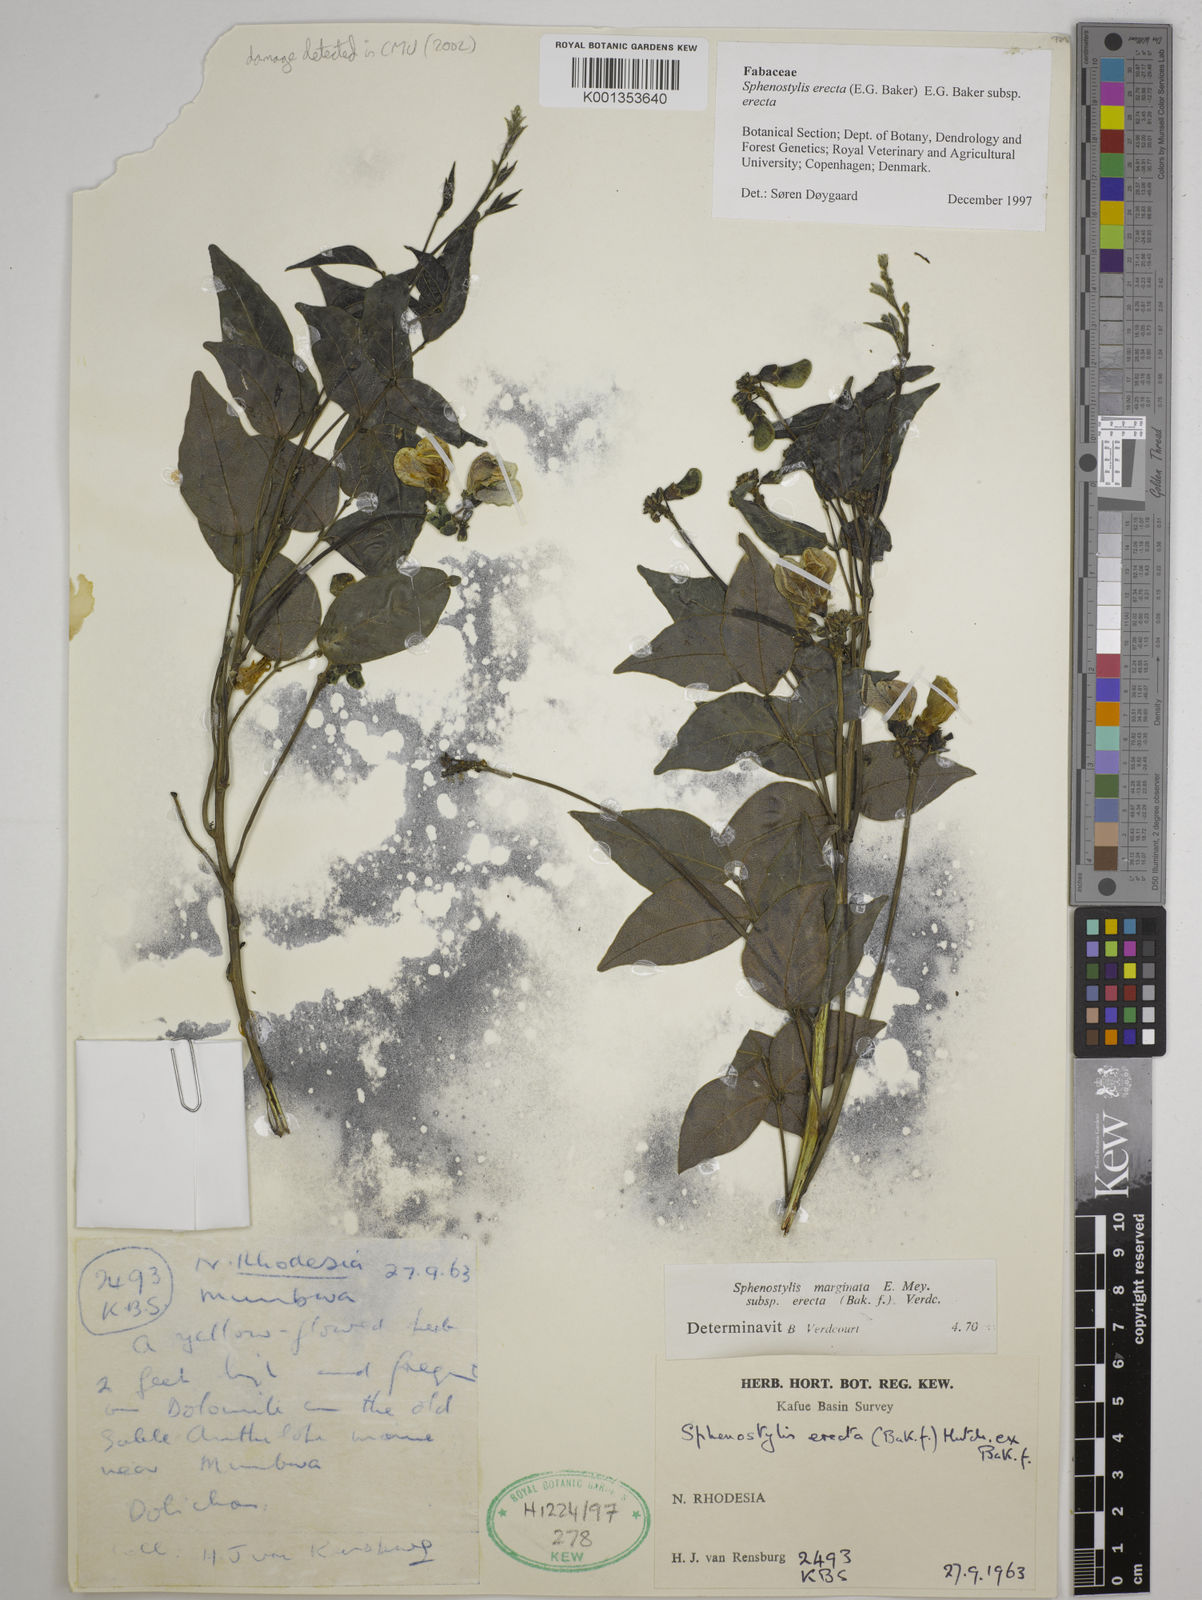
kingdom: Plantae
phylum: Tracheophyta
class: Magnoliopsida
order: Fabales
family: Fabaceae
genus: Sphenostylis
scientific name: Sphenostylis erecta
